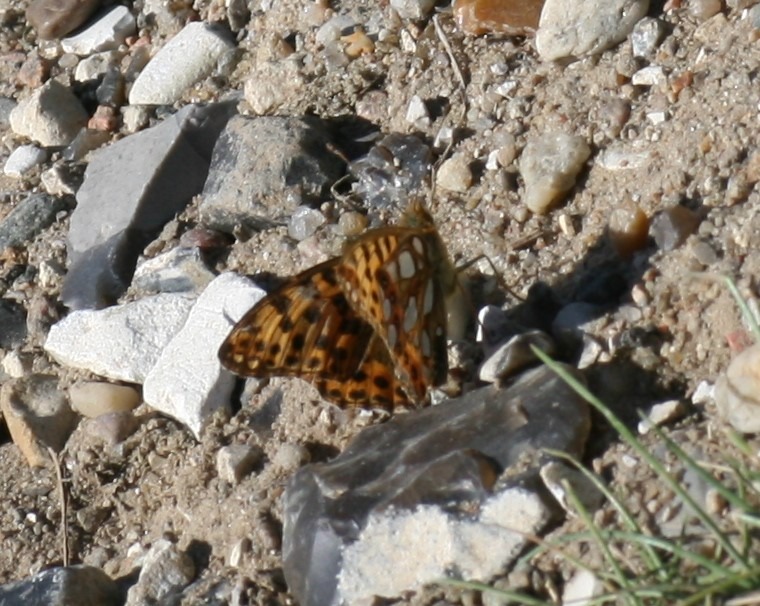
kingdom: Animalia
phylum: Arthropoda
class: Insecta
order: Lepidoptera
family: Nymphalidae
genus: Issoria
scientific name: Issoria lathonia
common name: Storplettet perlemorsommerfugl
